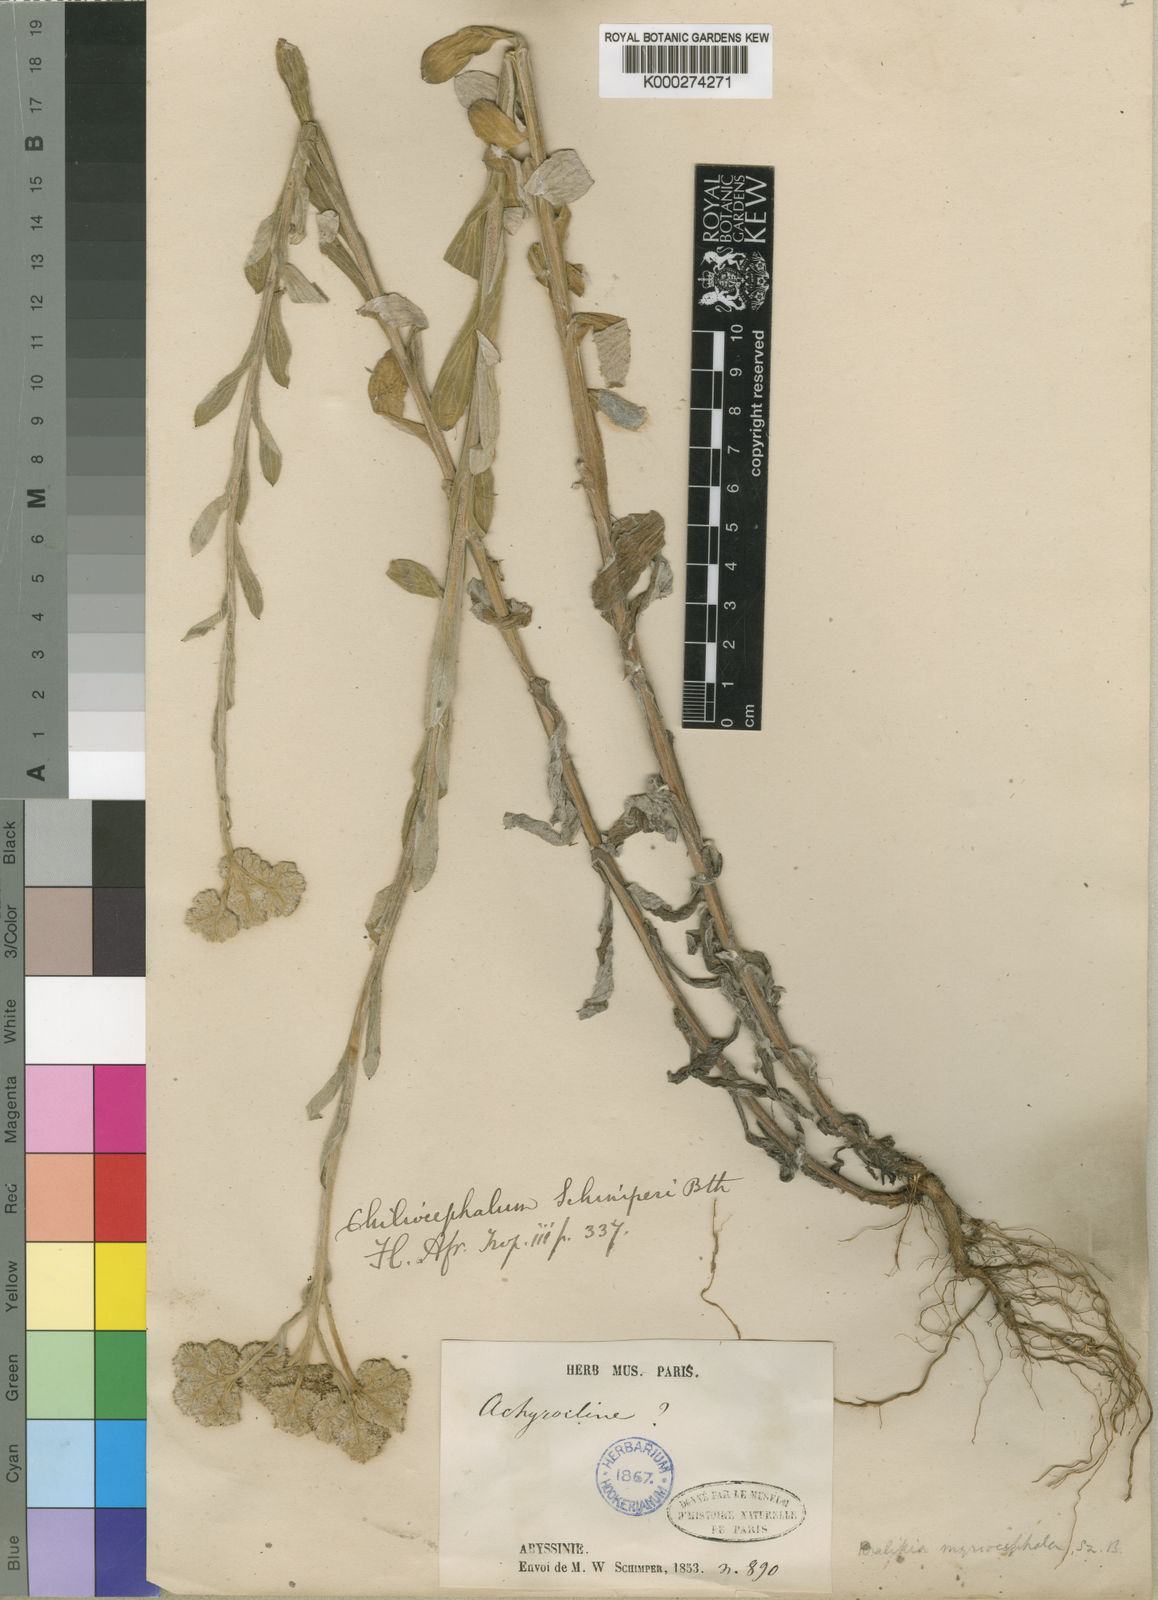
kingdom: Plantae
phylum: Tracheophyta
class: Magnoliopsida
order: Asterales
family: Asteraceae
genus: Chiliocephalum
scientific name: Chiliocephalum schimperi
